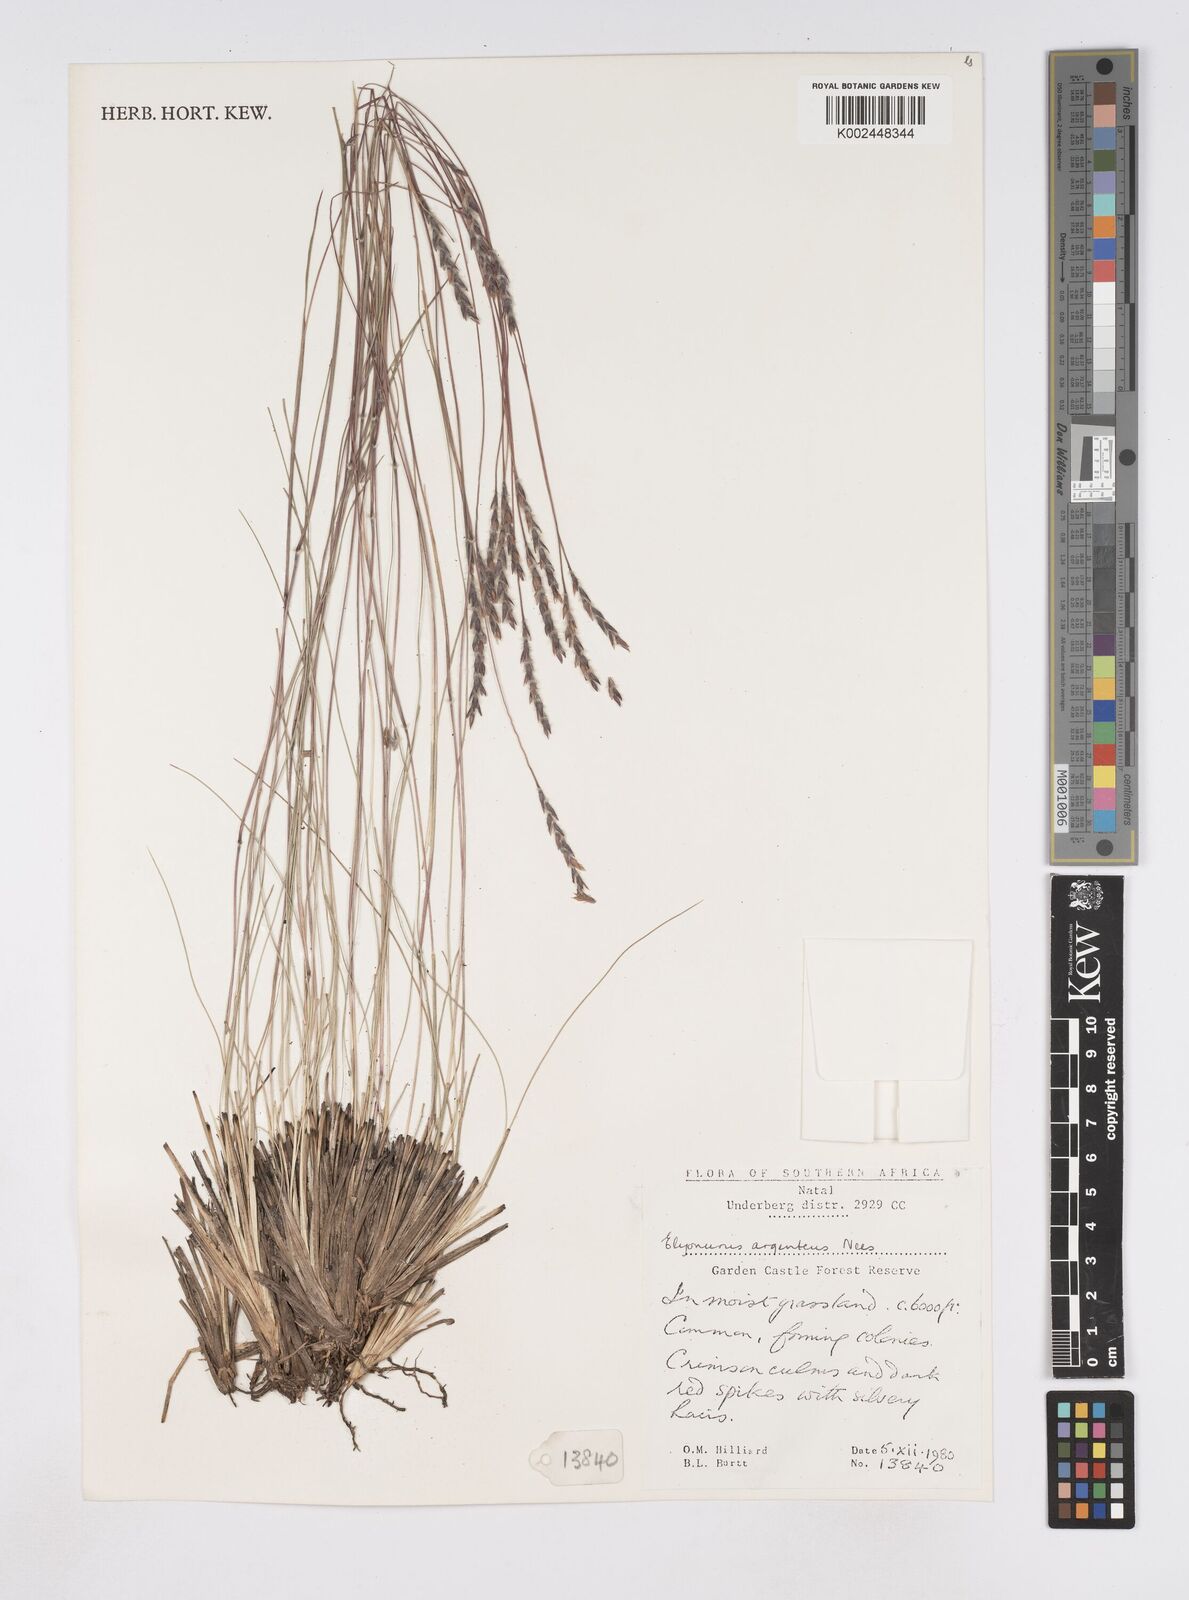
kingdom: Plantae
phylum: Tracheophyta
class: Liliopsida
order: Poales
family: Poaceae
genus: Elionurus
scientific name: Elionurus muticus
